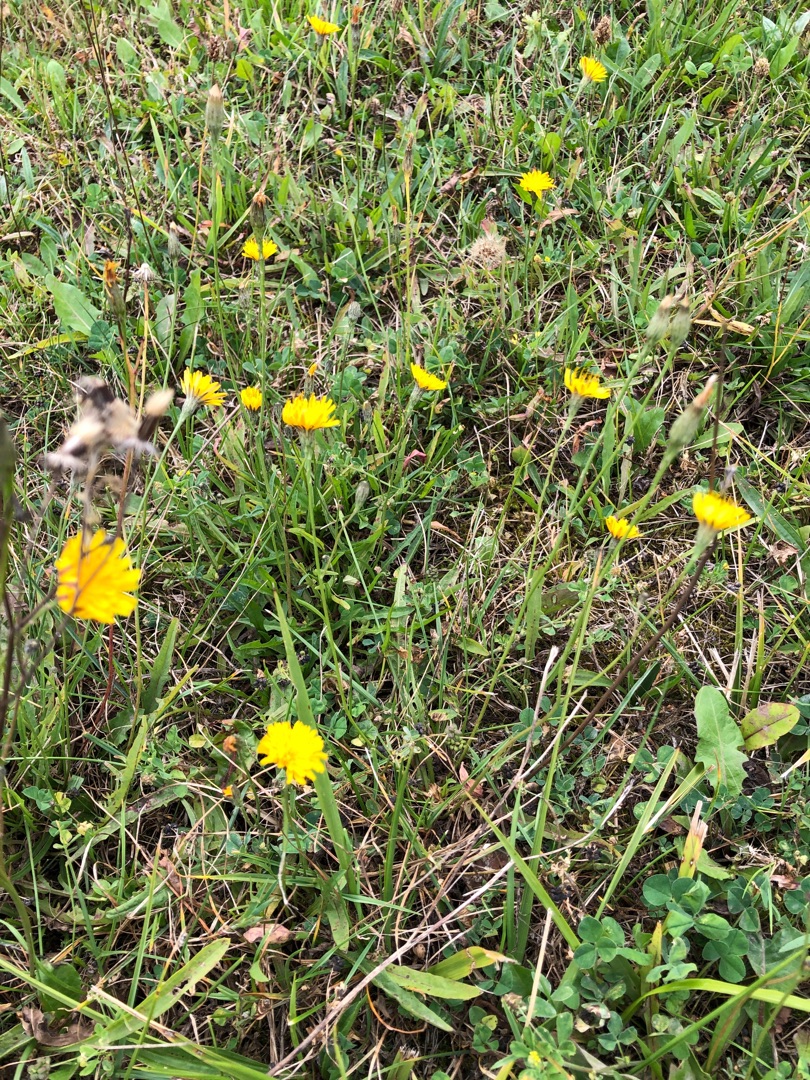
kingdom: Plantae
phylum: Tracheophyta
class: Magnoliopsida
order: Asterales
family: Asteraceae
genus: Scorzoneroides
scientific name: Scorzoneroides autumnalis
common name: Høst-borst
